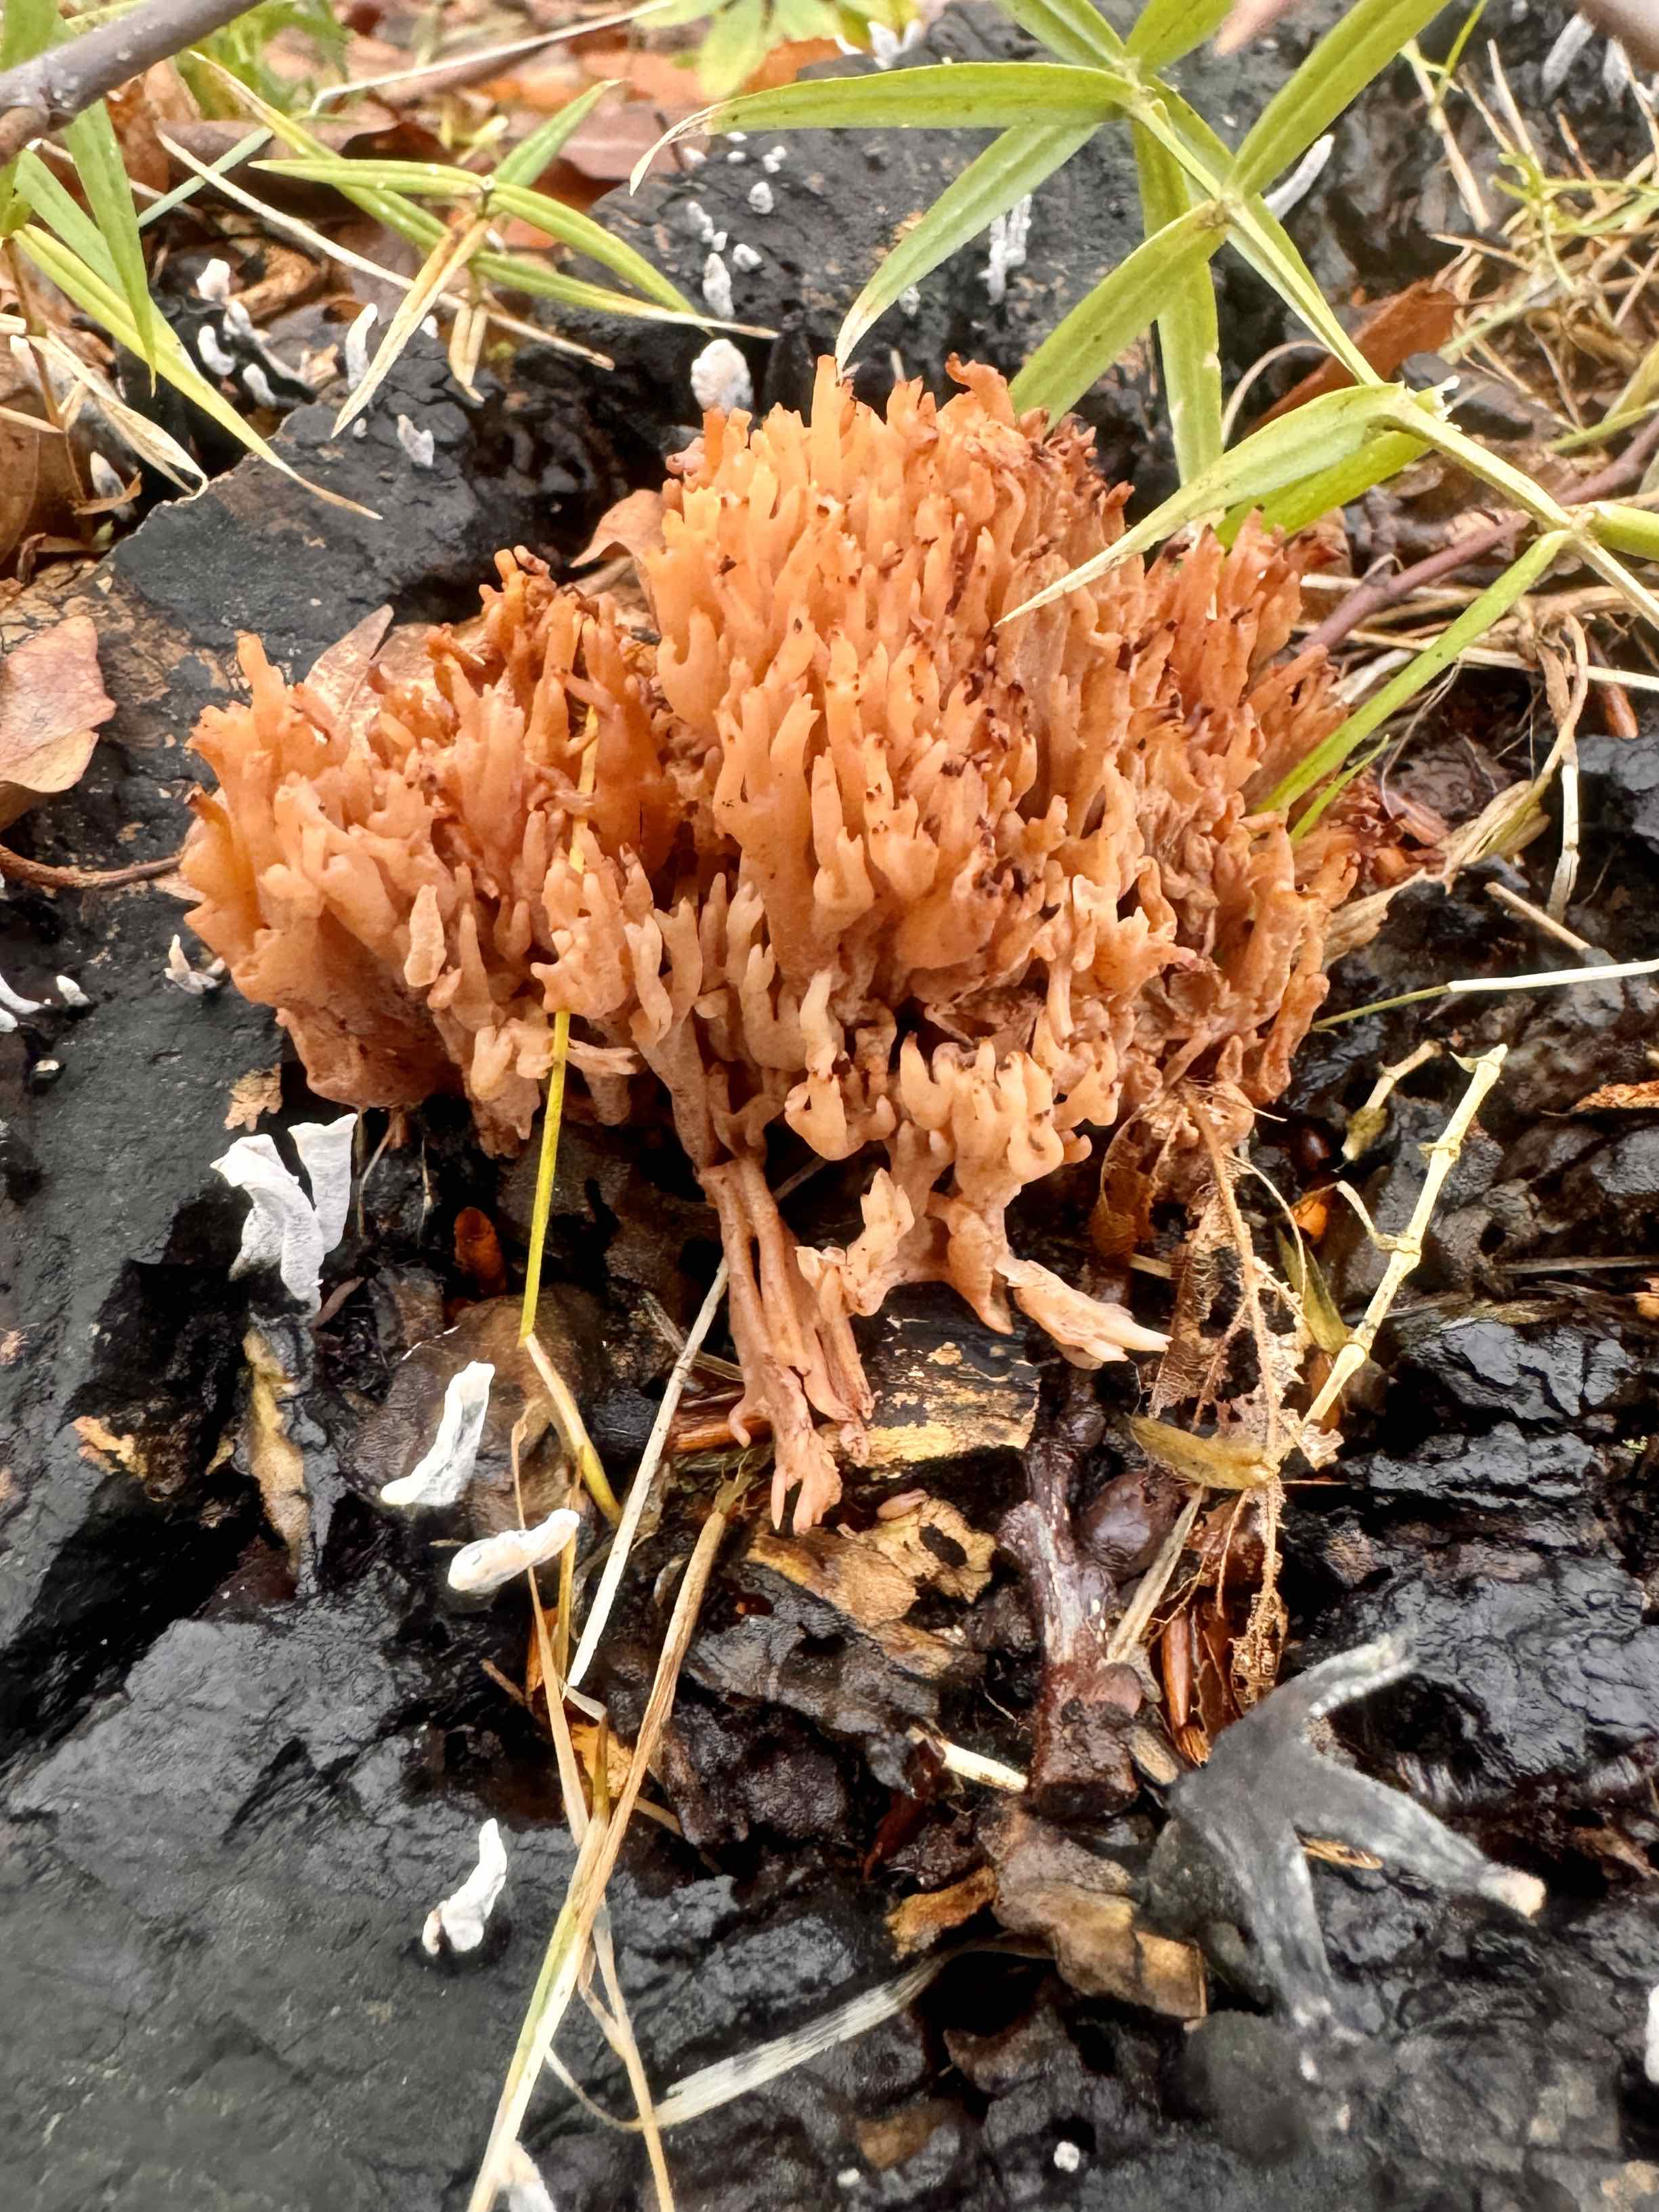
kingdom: Fungi
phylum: Basidiomycota
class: Agaricomycetes
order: Gomphales
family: Gomphaceae
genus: Ramaria
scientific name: Ramaria stricta
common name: rank koralsvamp
